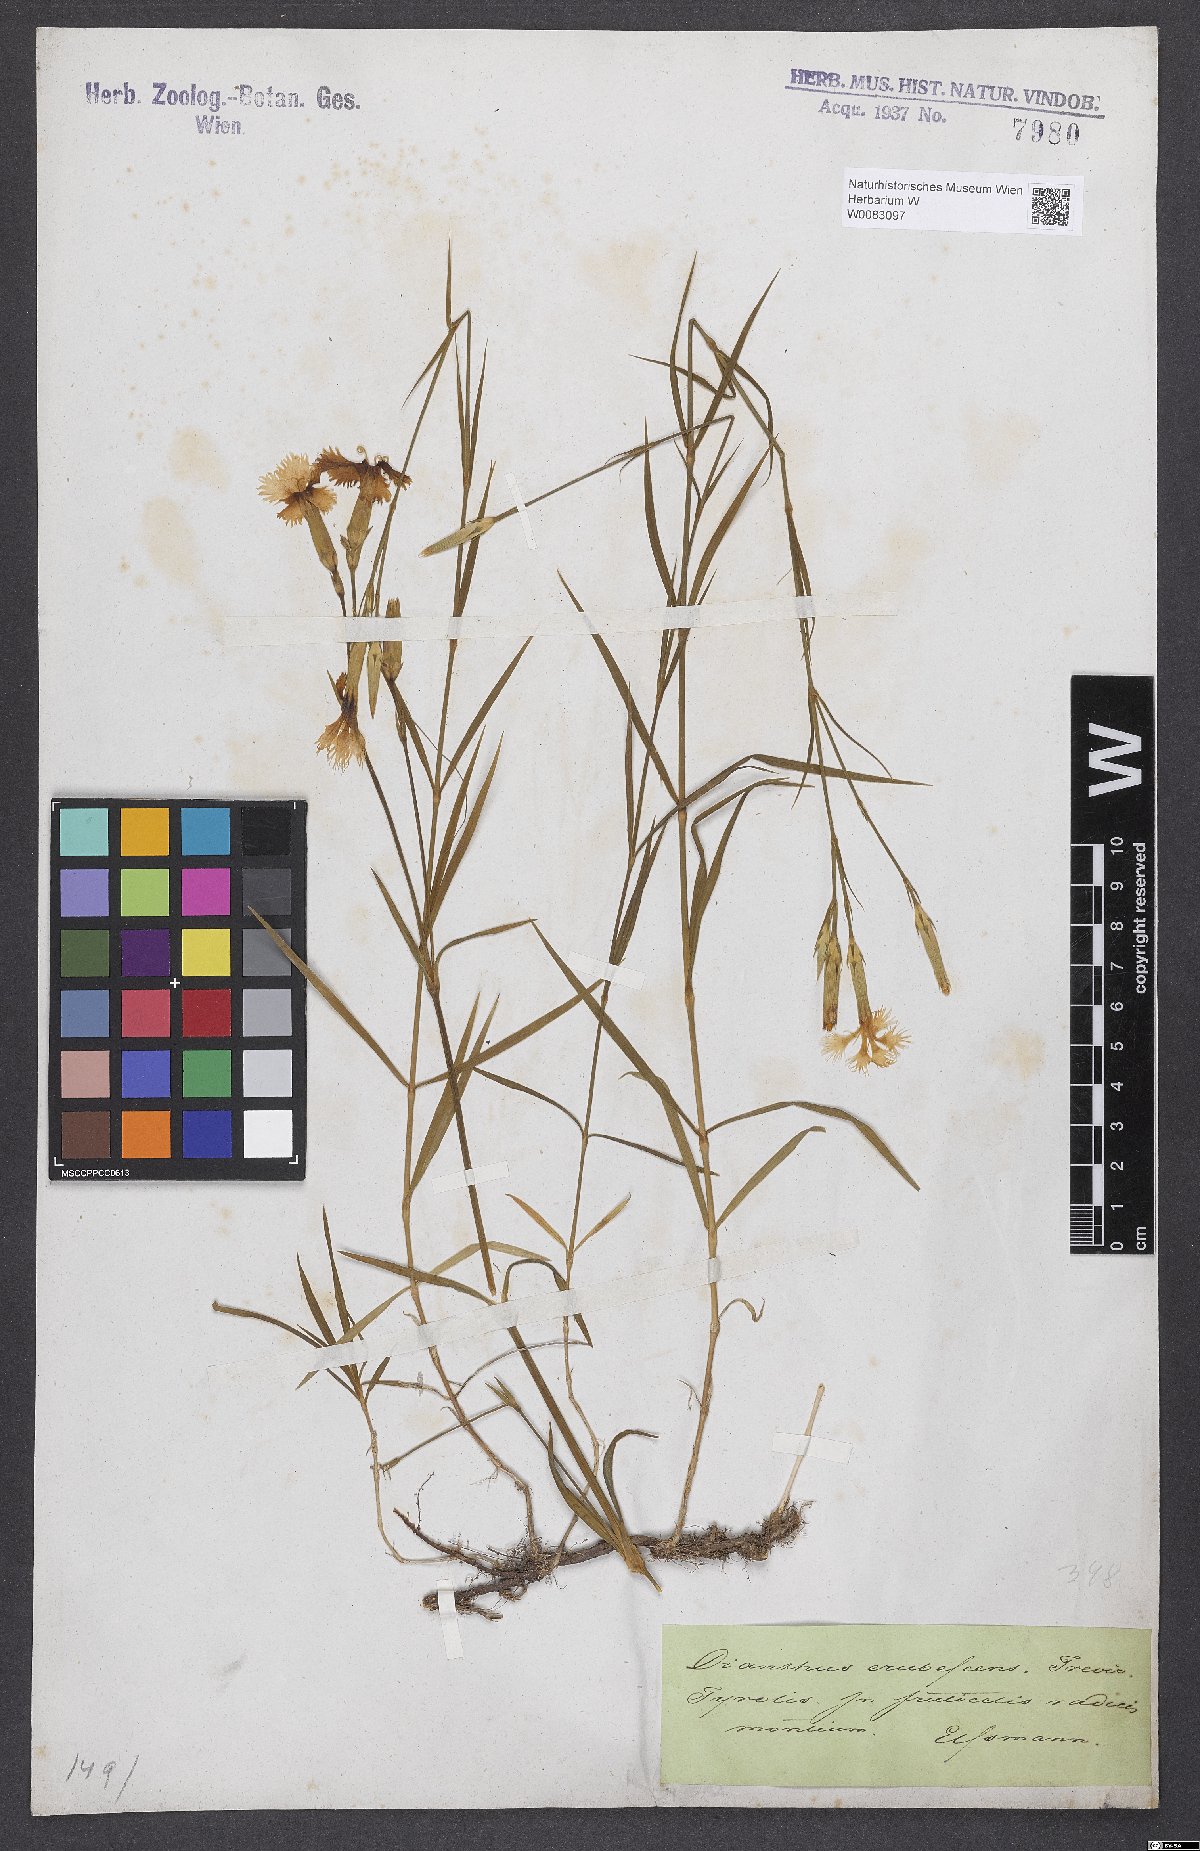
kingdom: Plantae
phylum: Tracheophyta
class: Magnoliopsida
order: Caryophyllales
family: Caryophyllaceae
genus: Dianthus
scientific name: Dianthus erubescens
